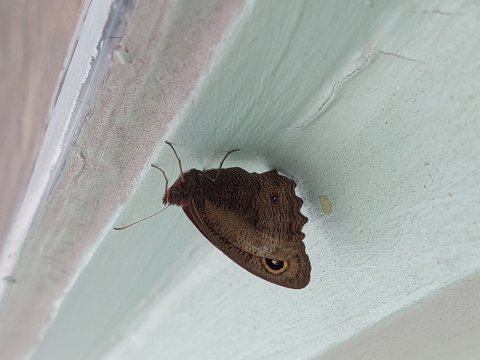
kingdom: Animalia
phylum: Arthropoda
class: Insecta
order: Lepidoptera
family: Nymphalidae
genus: Cercyonis
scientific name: Cercyonis pegala
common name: Common Wood-Nymph
